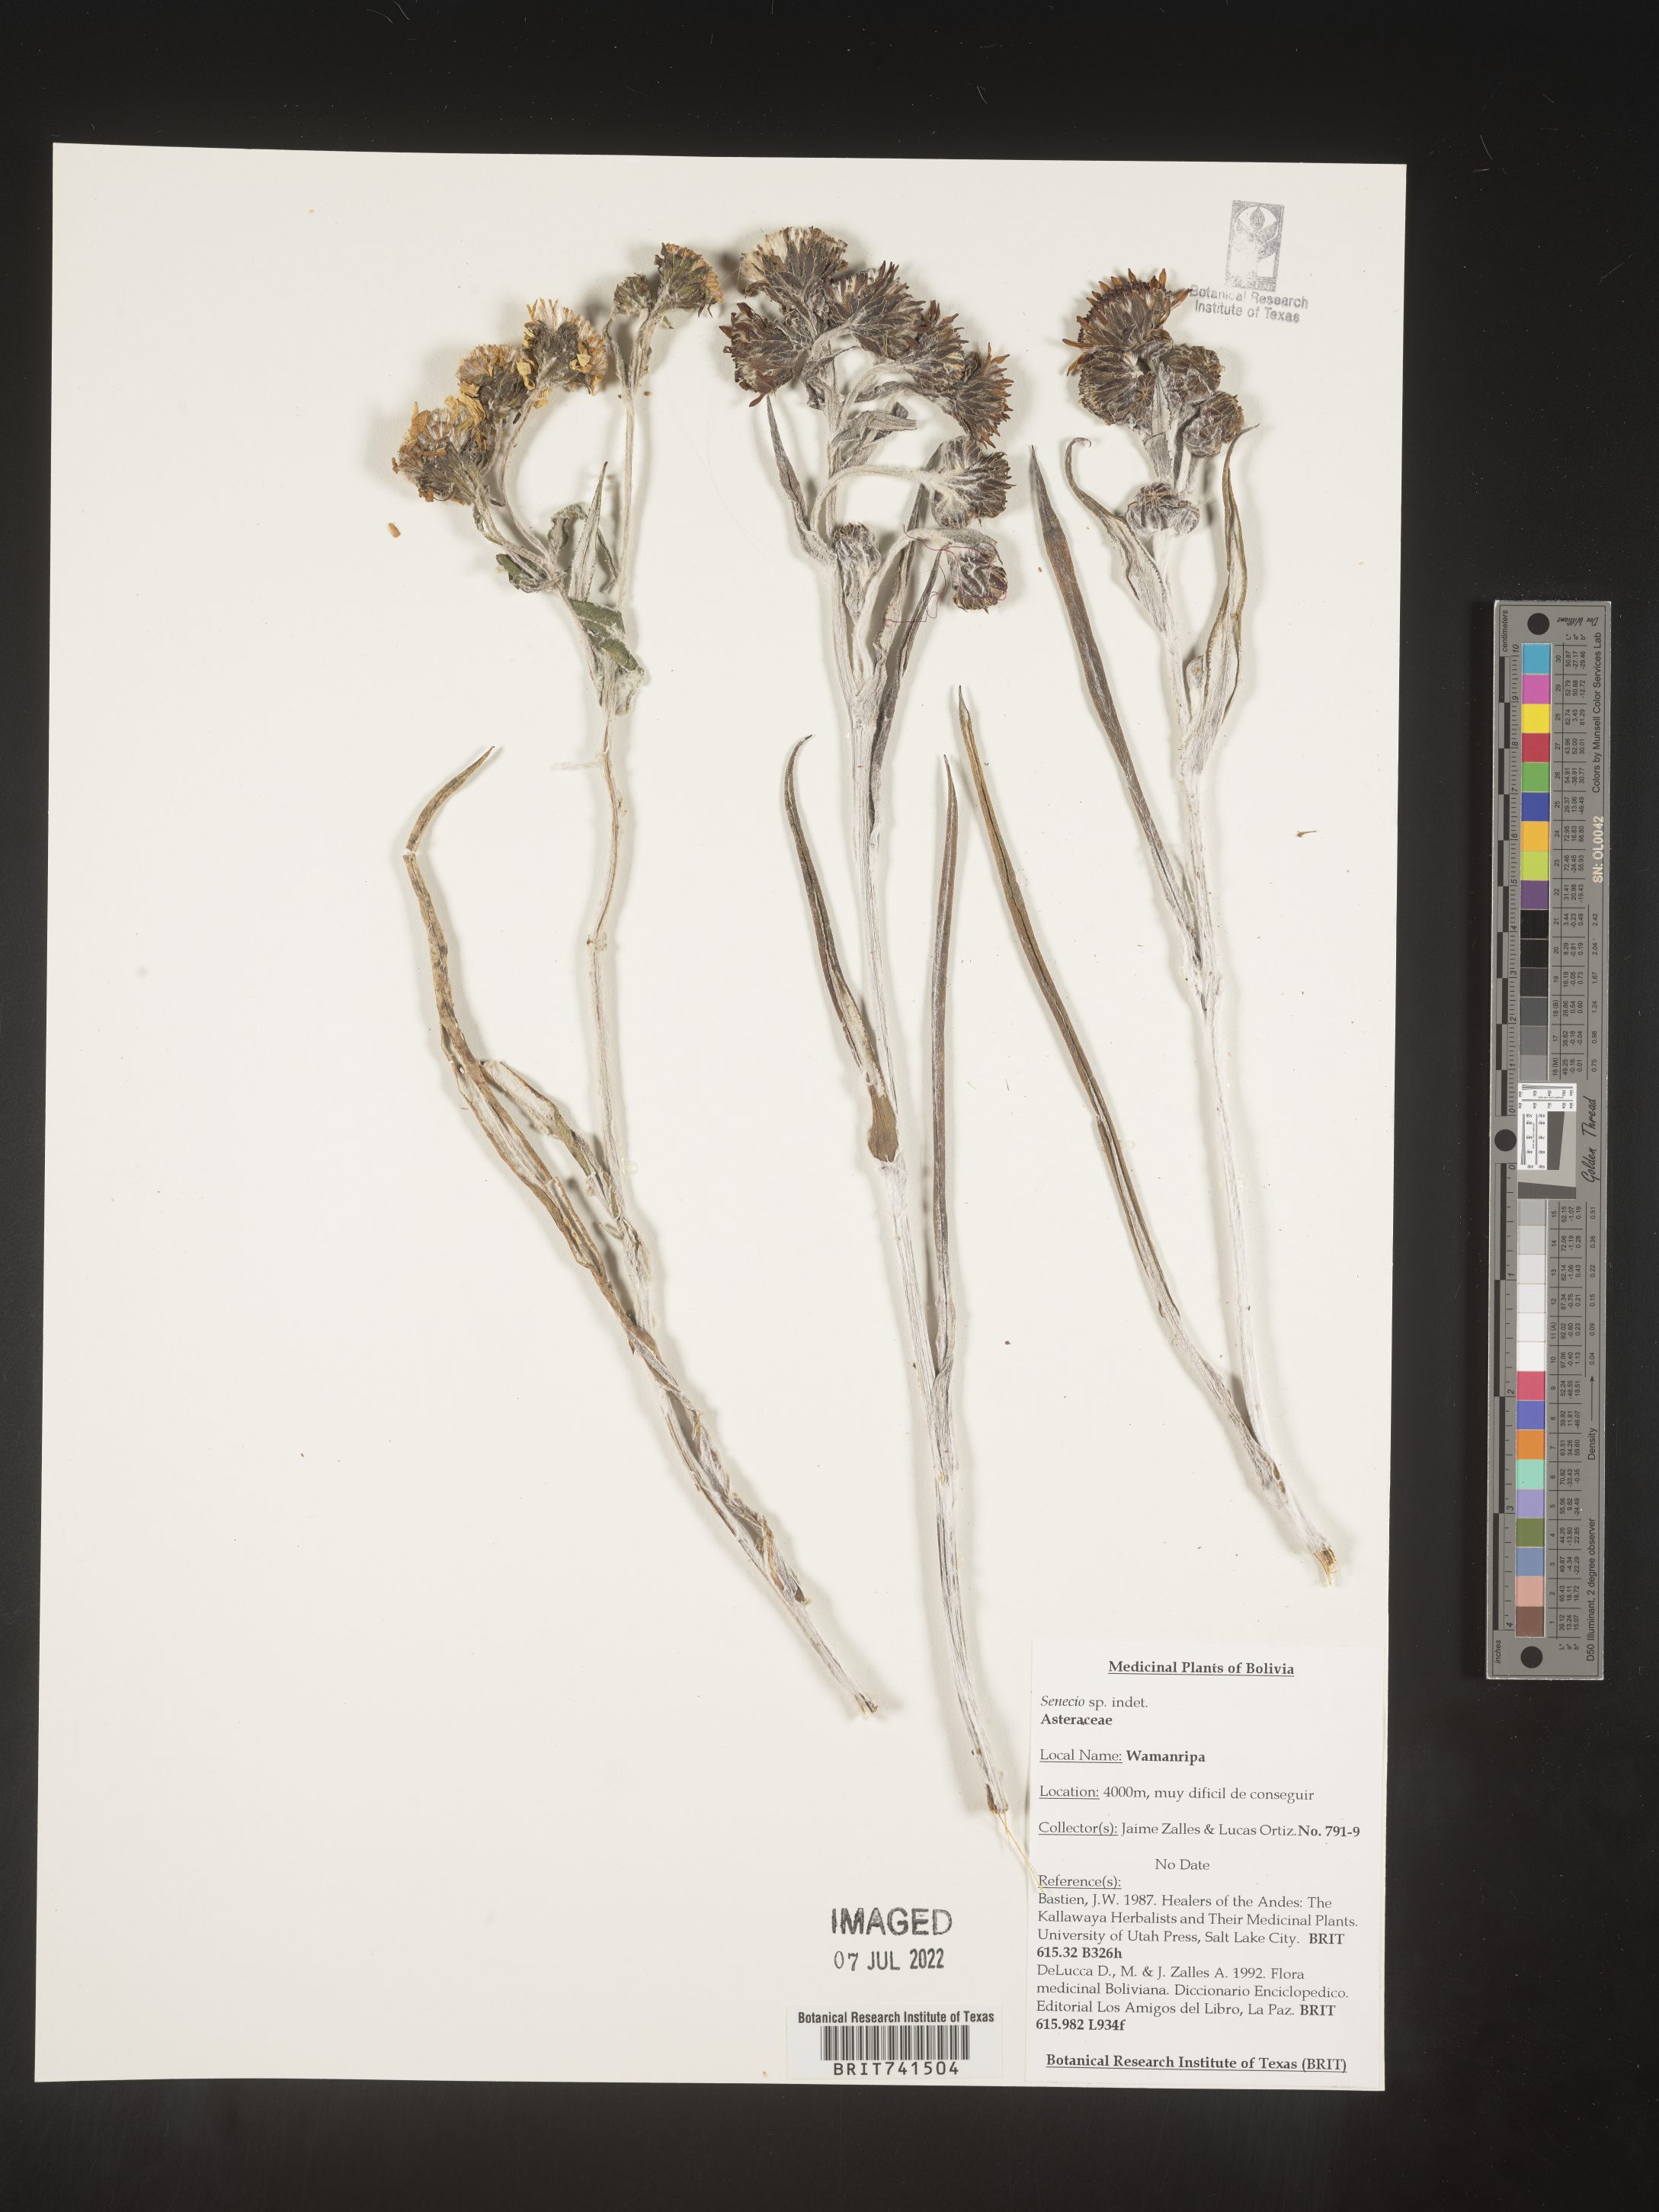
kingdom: Plantae
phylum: Tracheophyta
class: Magnoliopsida
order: Asterales
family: Asteraceae
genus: Senecio
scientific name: Senecio
